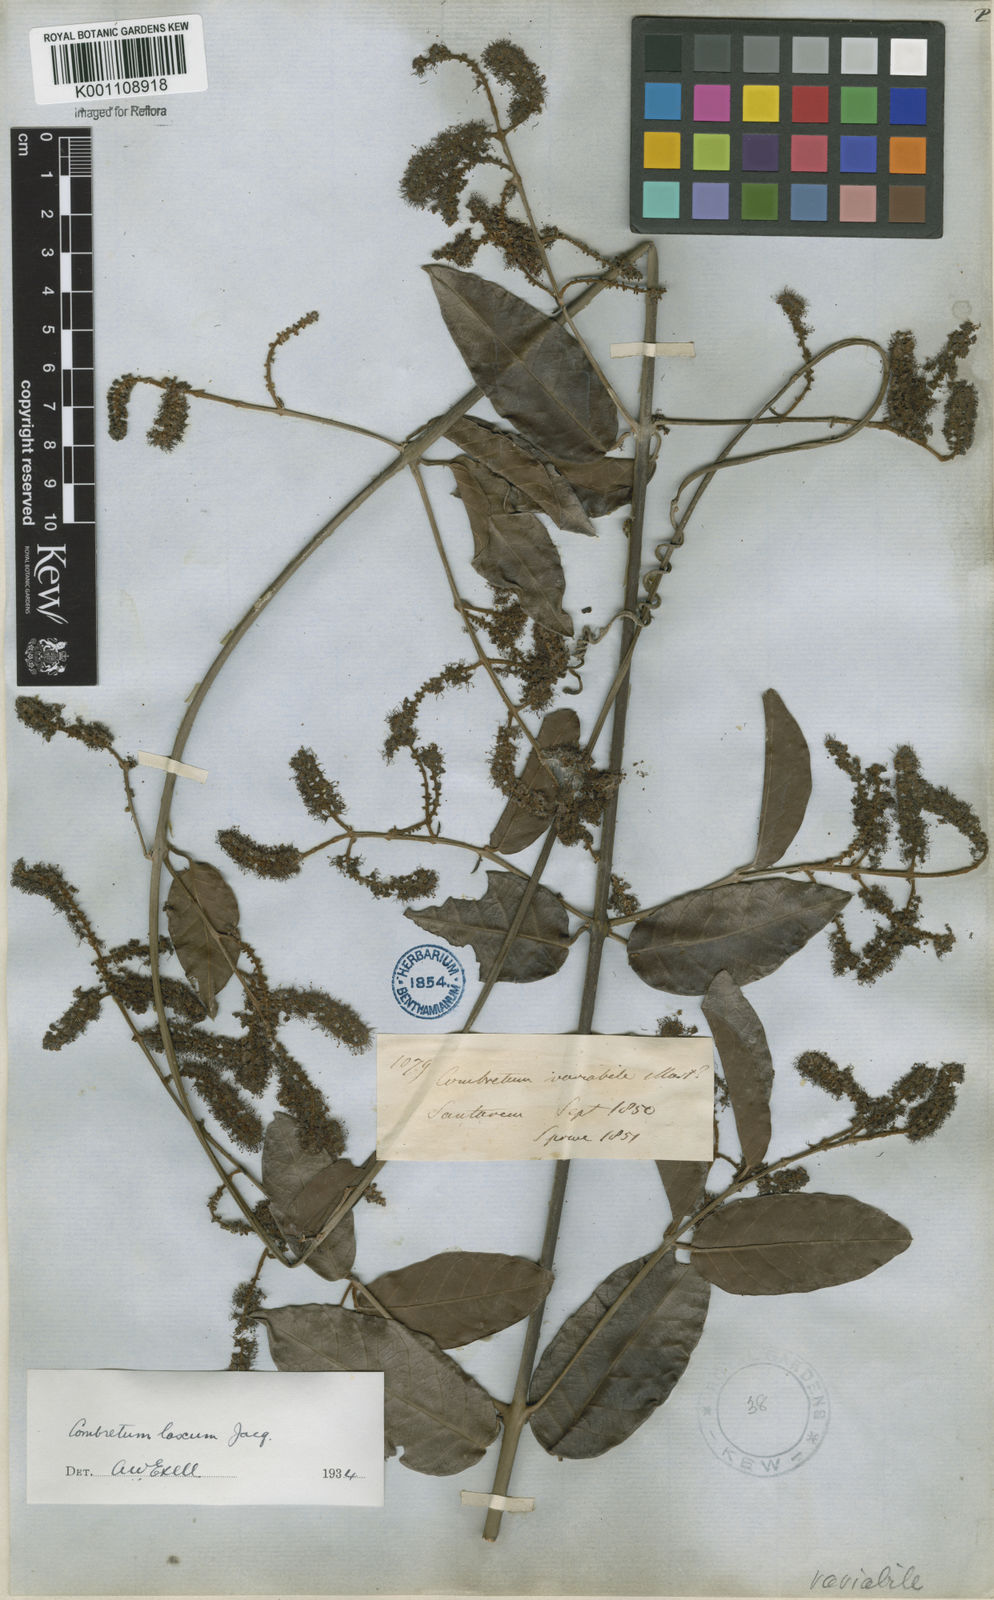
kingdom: Plantae
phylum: Tracheophyta
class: Magnoliopsida
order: Myrtales
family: Combretaceae
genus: Combretum
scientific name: Combretum laxum
